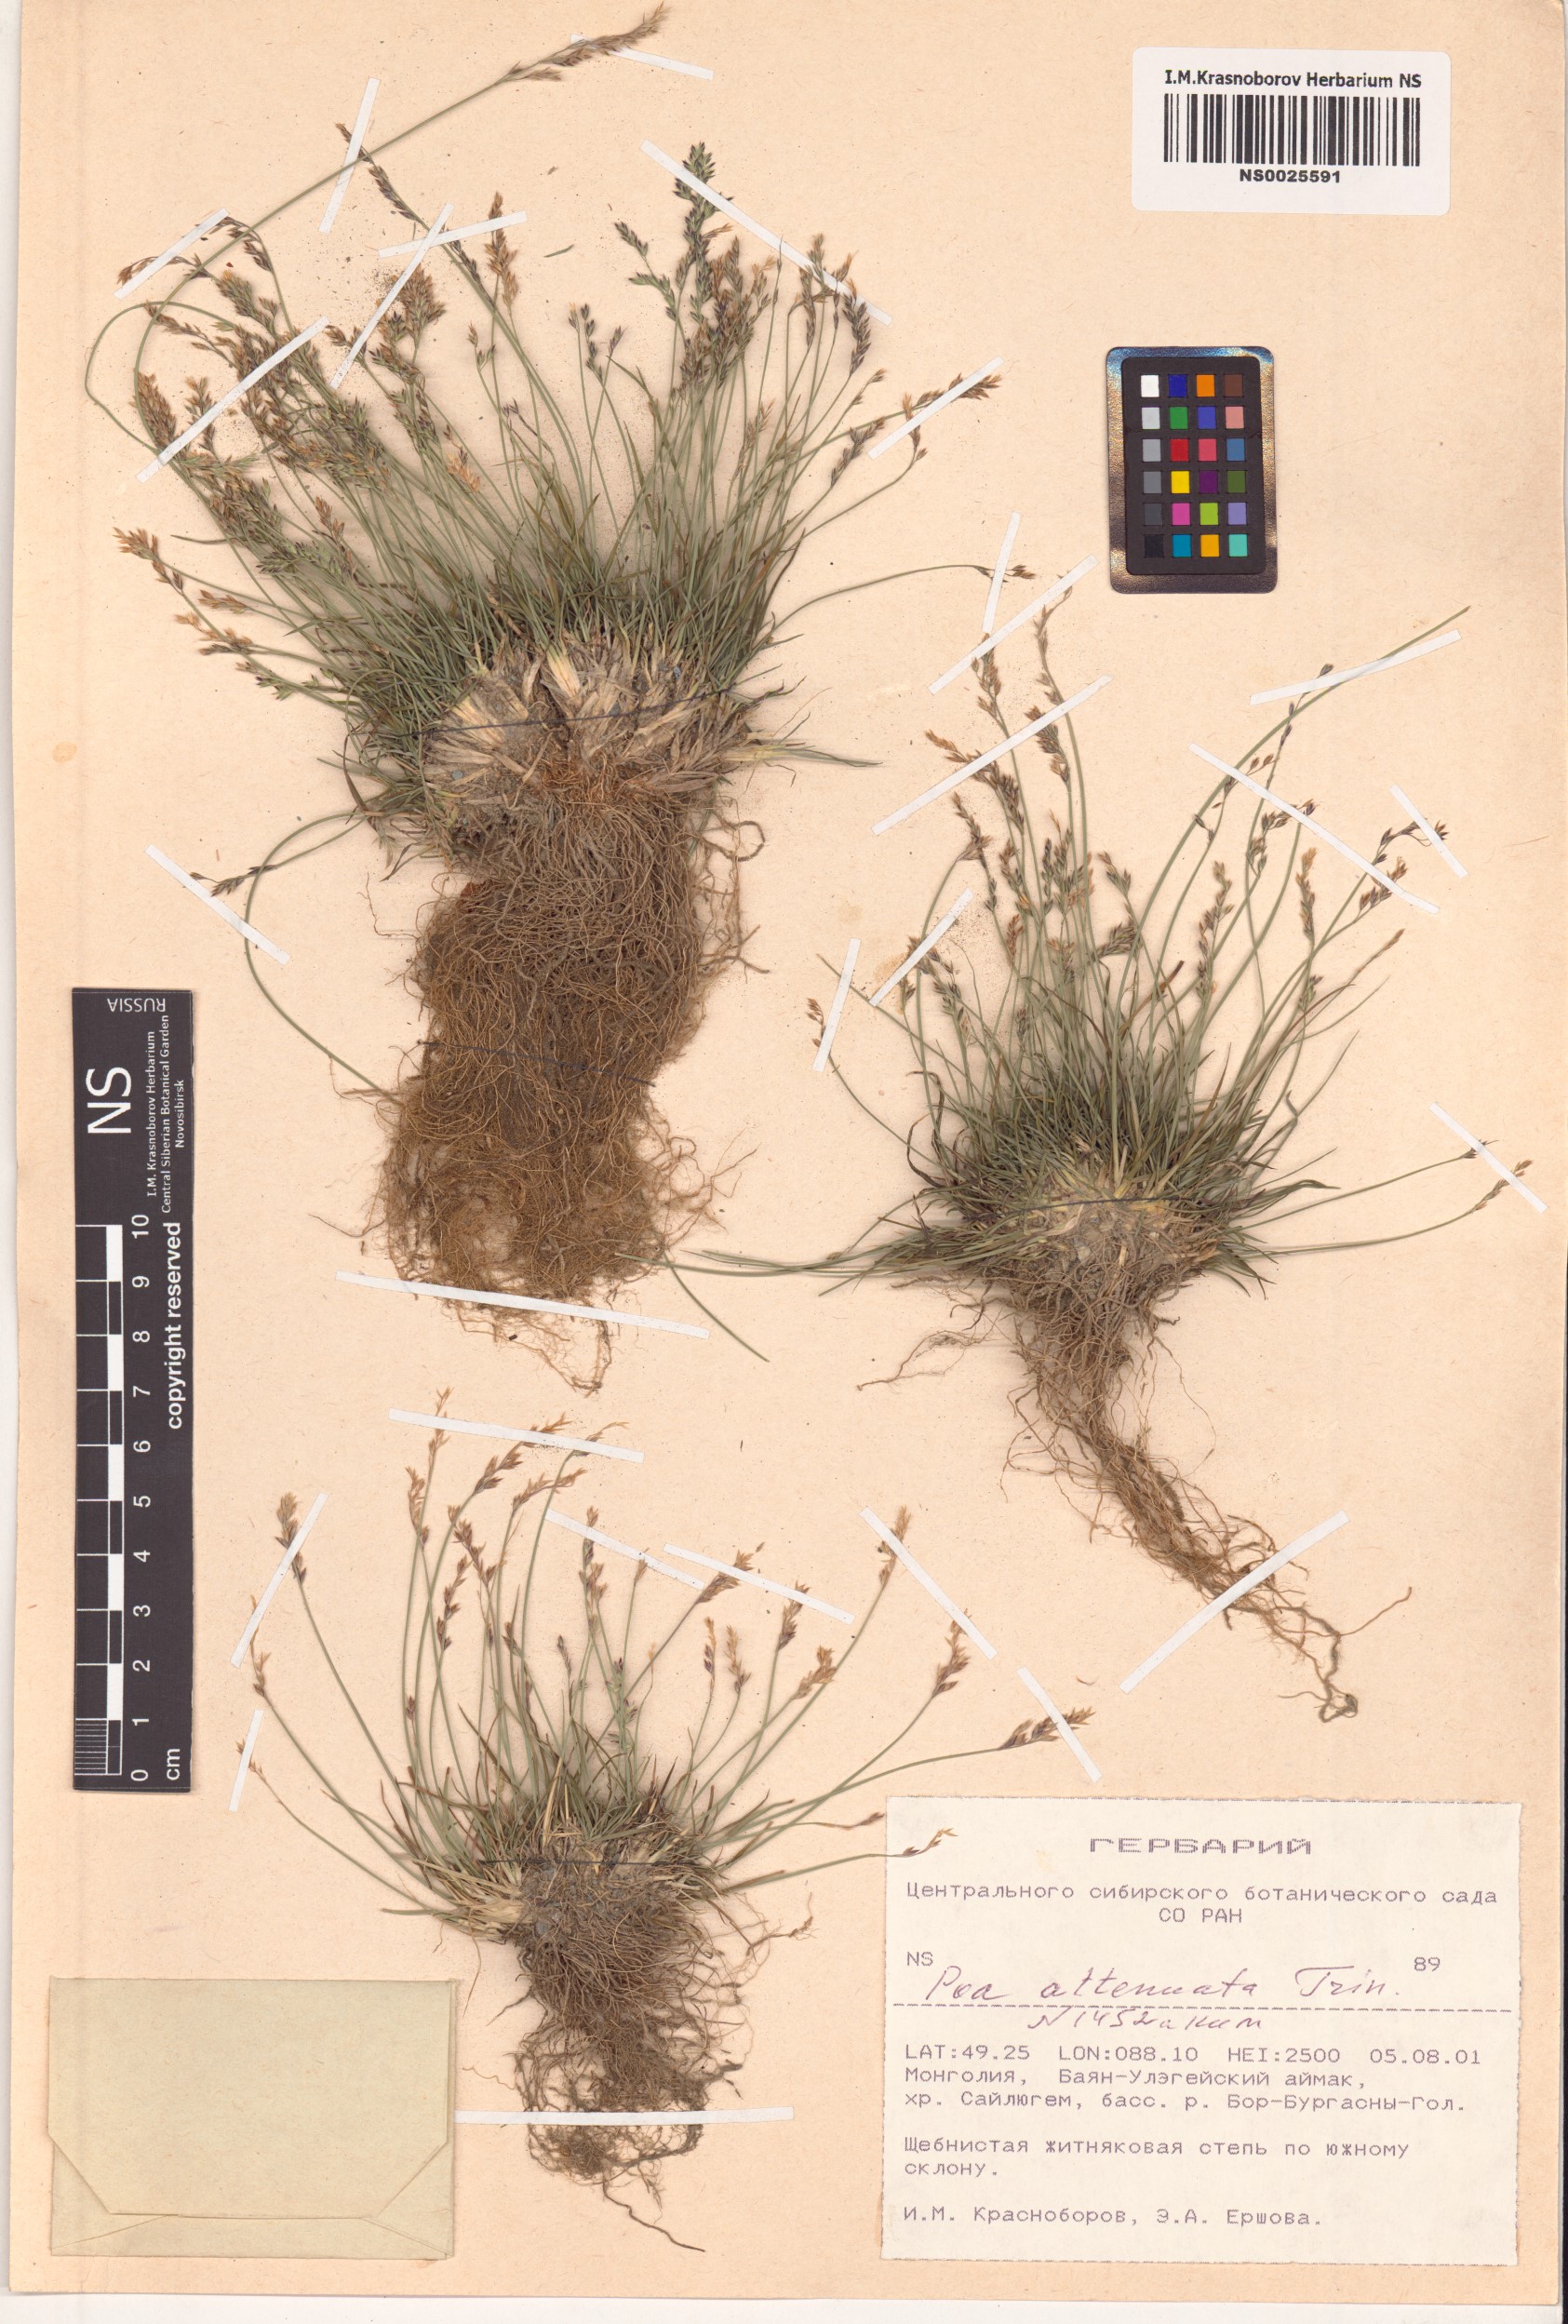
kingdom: Plantae
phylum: Tracheophyta
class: Liliopsida
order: Poales
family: Poaceae
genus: Poa
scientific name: Poa attenuata
